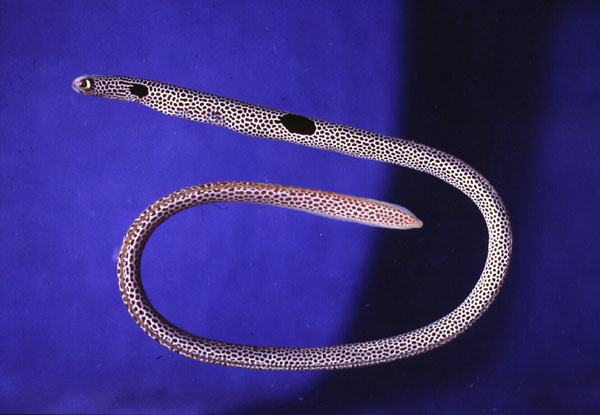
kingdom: Animalia
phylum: Chordata
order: Anguilliformes
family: Congridae
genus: Heteroconger
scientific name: Heteroconger hassi
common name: Spotted garden eel
